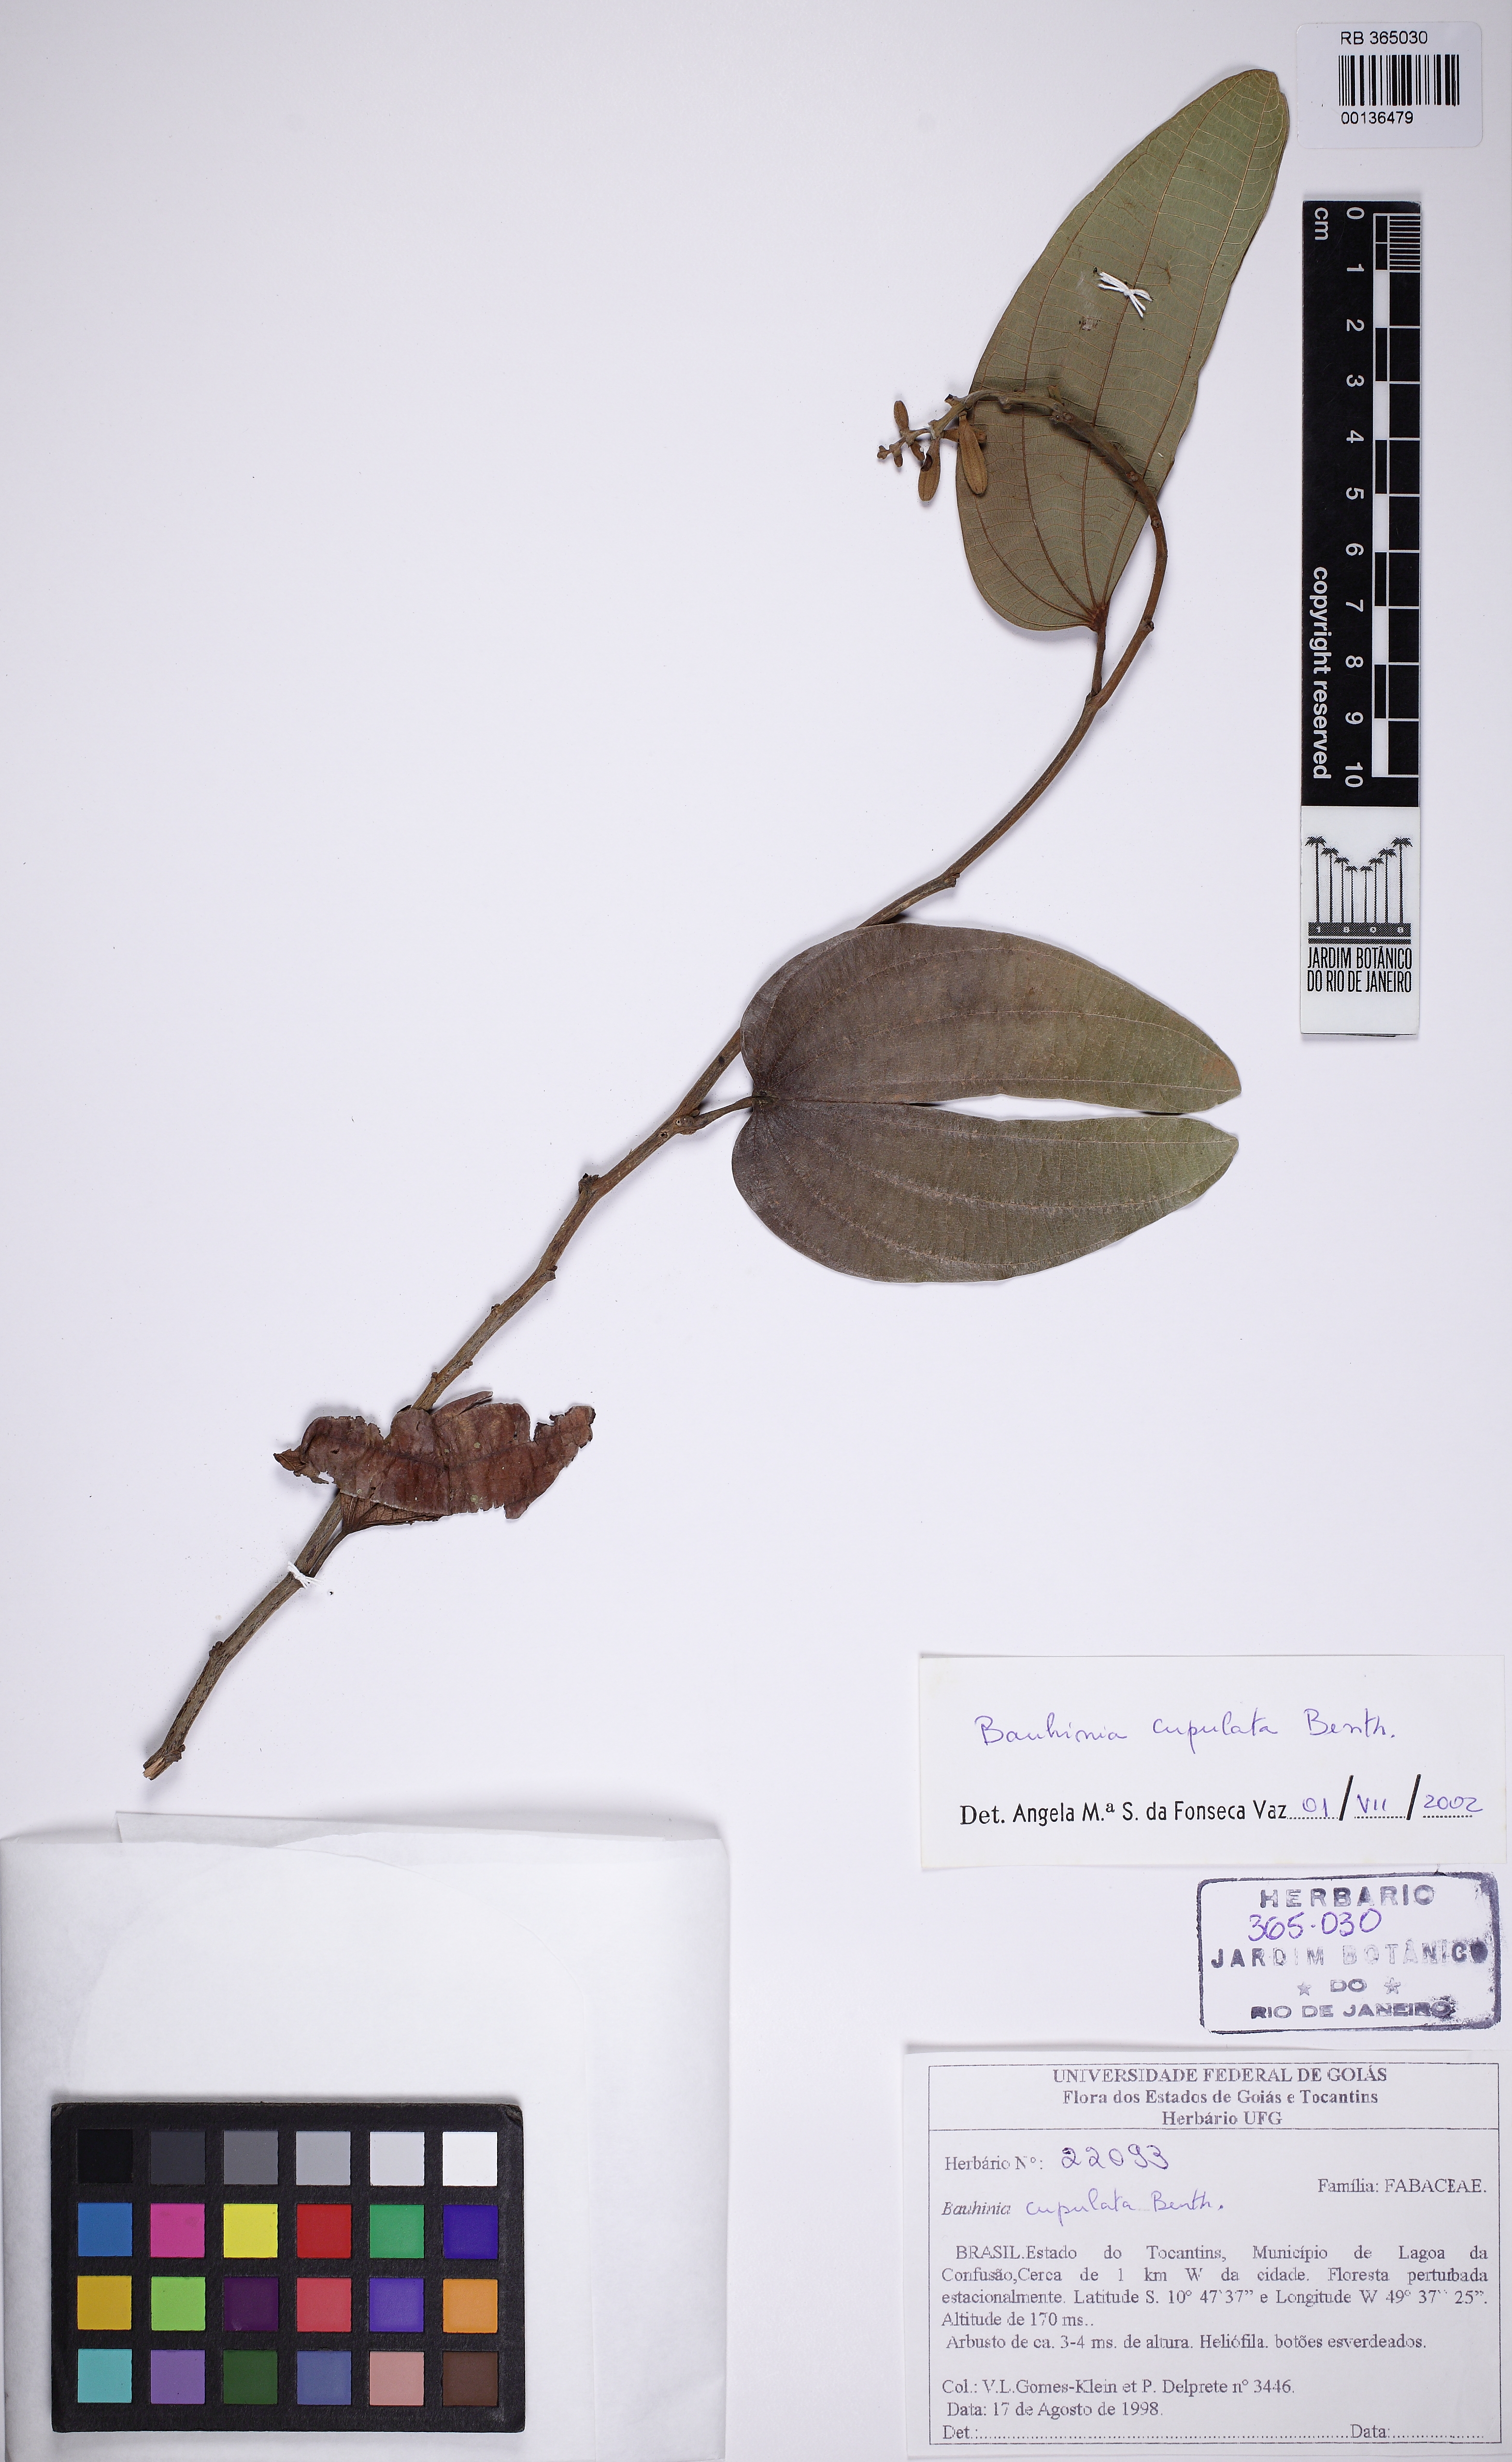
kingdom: Plantae
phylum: Tracheophyta
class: Magnoliopsida
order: Fabales
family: Fabaceae
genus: Bauhinia
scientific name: Bauhinia cupulata
